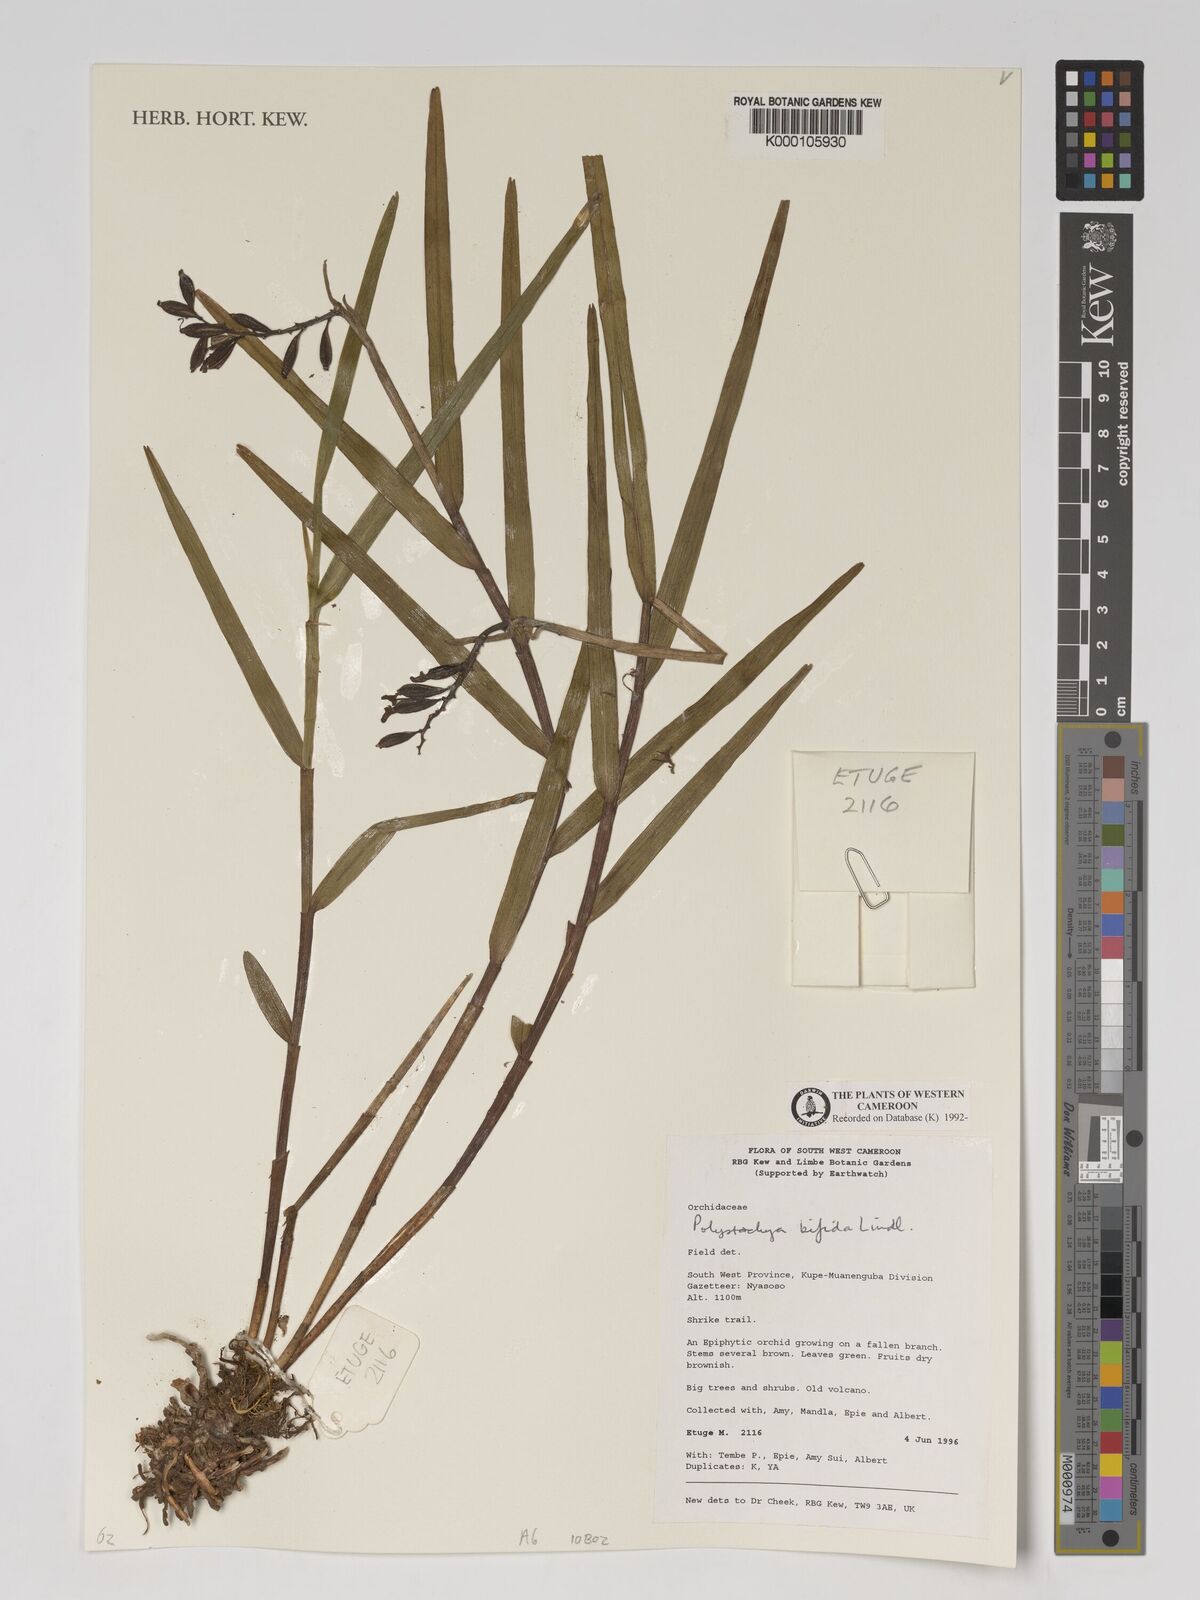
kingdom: Plantae
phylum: Tracheophyta
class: Liliopsida
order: Asparagales
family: Orchidaceae
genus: Polystachya
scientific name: Polystachya bifida
